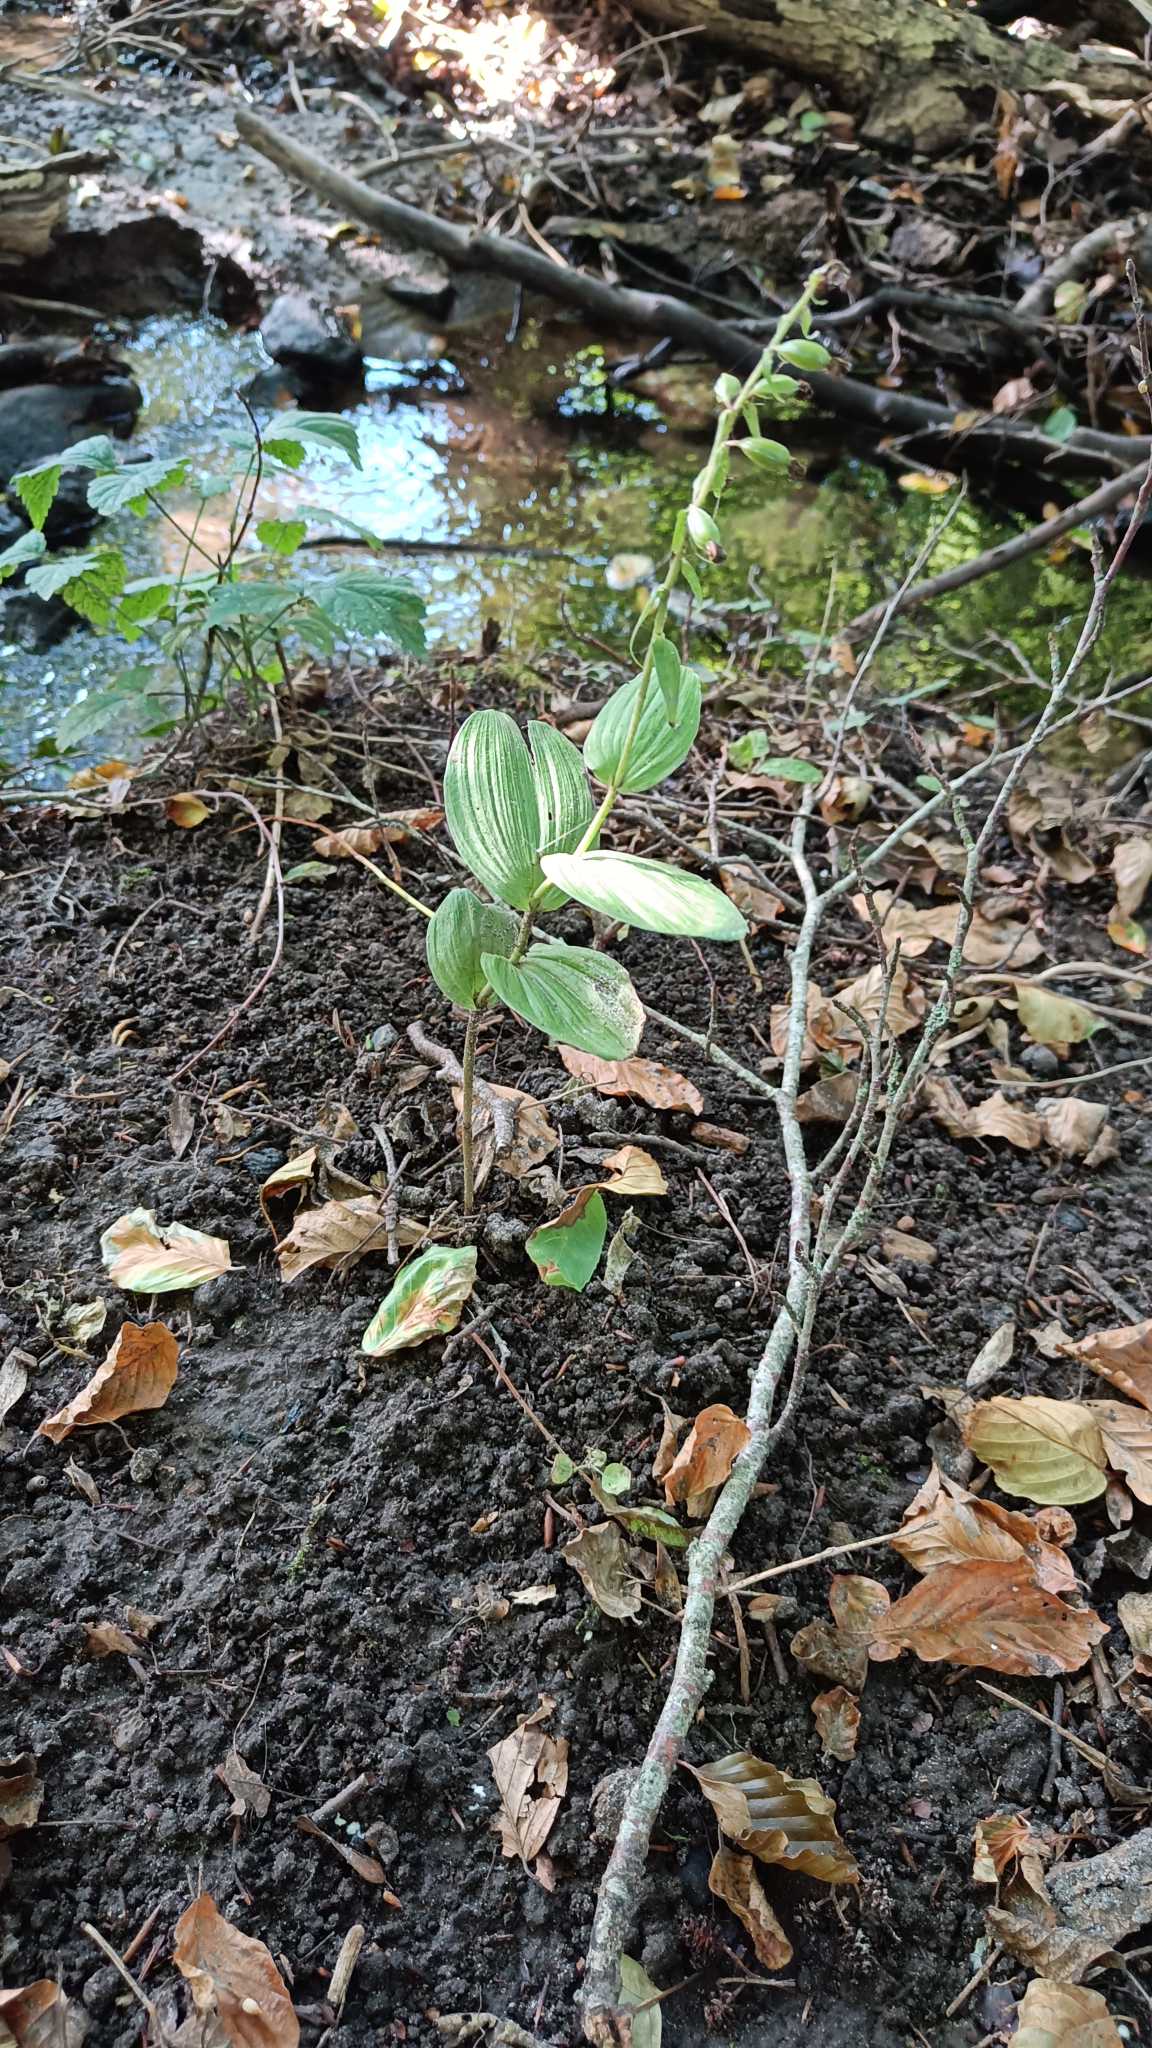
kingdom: Plantae
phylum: Tracheophyta
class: Liliopsida
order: Asparagales
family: Orchidaceae
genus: Epipactis
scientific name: Epipactis helleborine
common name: Skov-hullæbe
